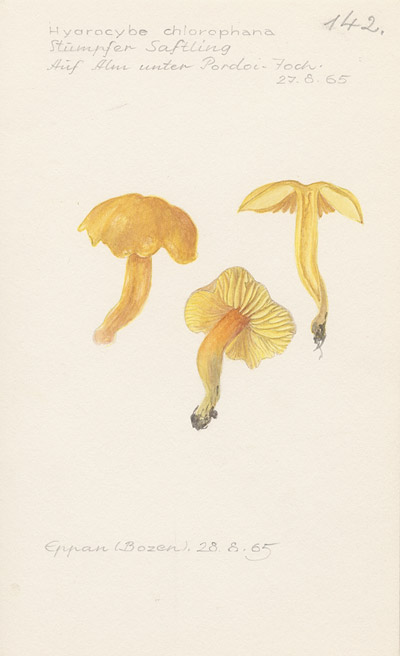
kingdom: Fungi
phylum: Basidiomycota
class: Agaricomycetes
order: Agaricales
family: Hygrophoraceae
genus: Hygrocybe
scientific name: Hygrocybe chlorophana
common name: Golden waxcap
